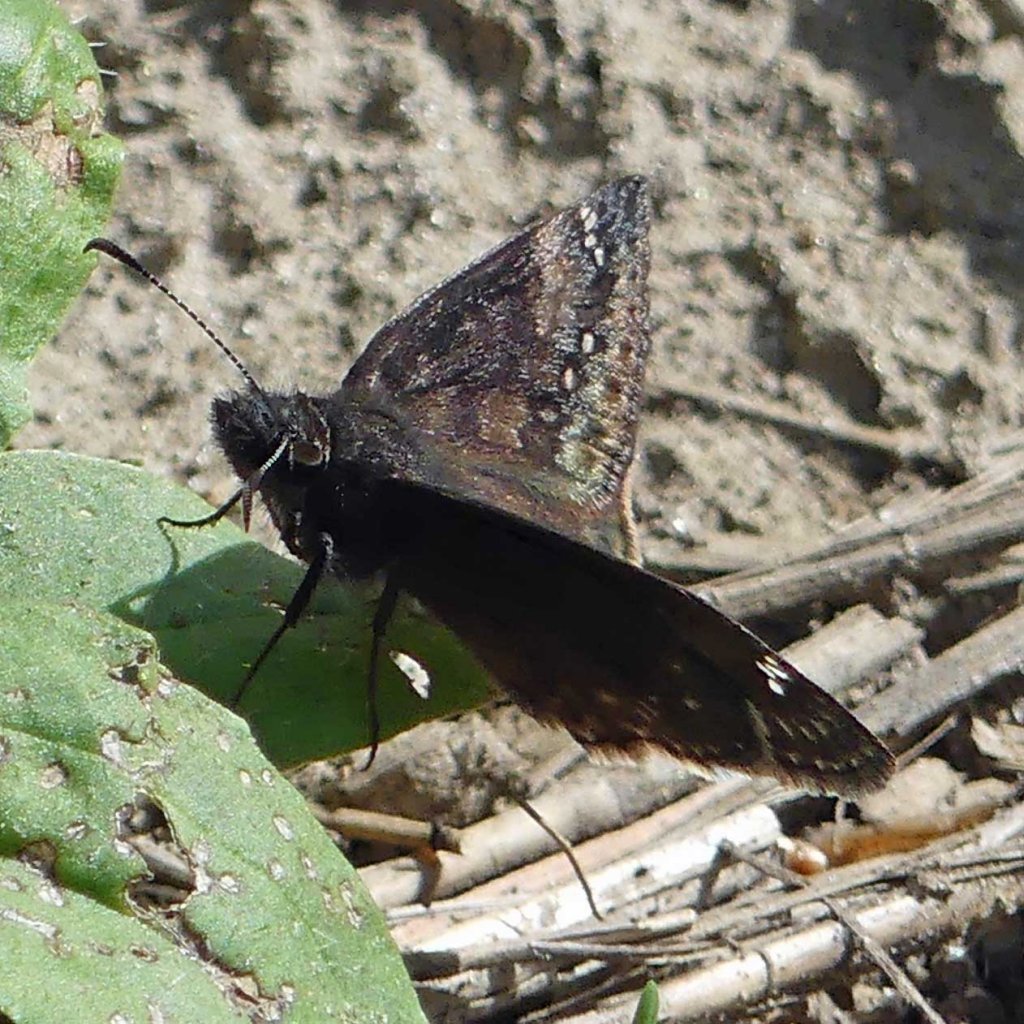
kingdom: Animalia
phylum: Arthropoda
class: Insecta
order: Lepidoptera
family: Hesperiidae
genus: Gesta
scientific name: Gesta
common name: Wild Indigo Duskywing
